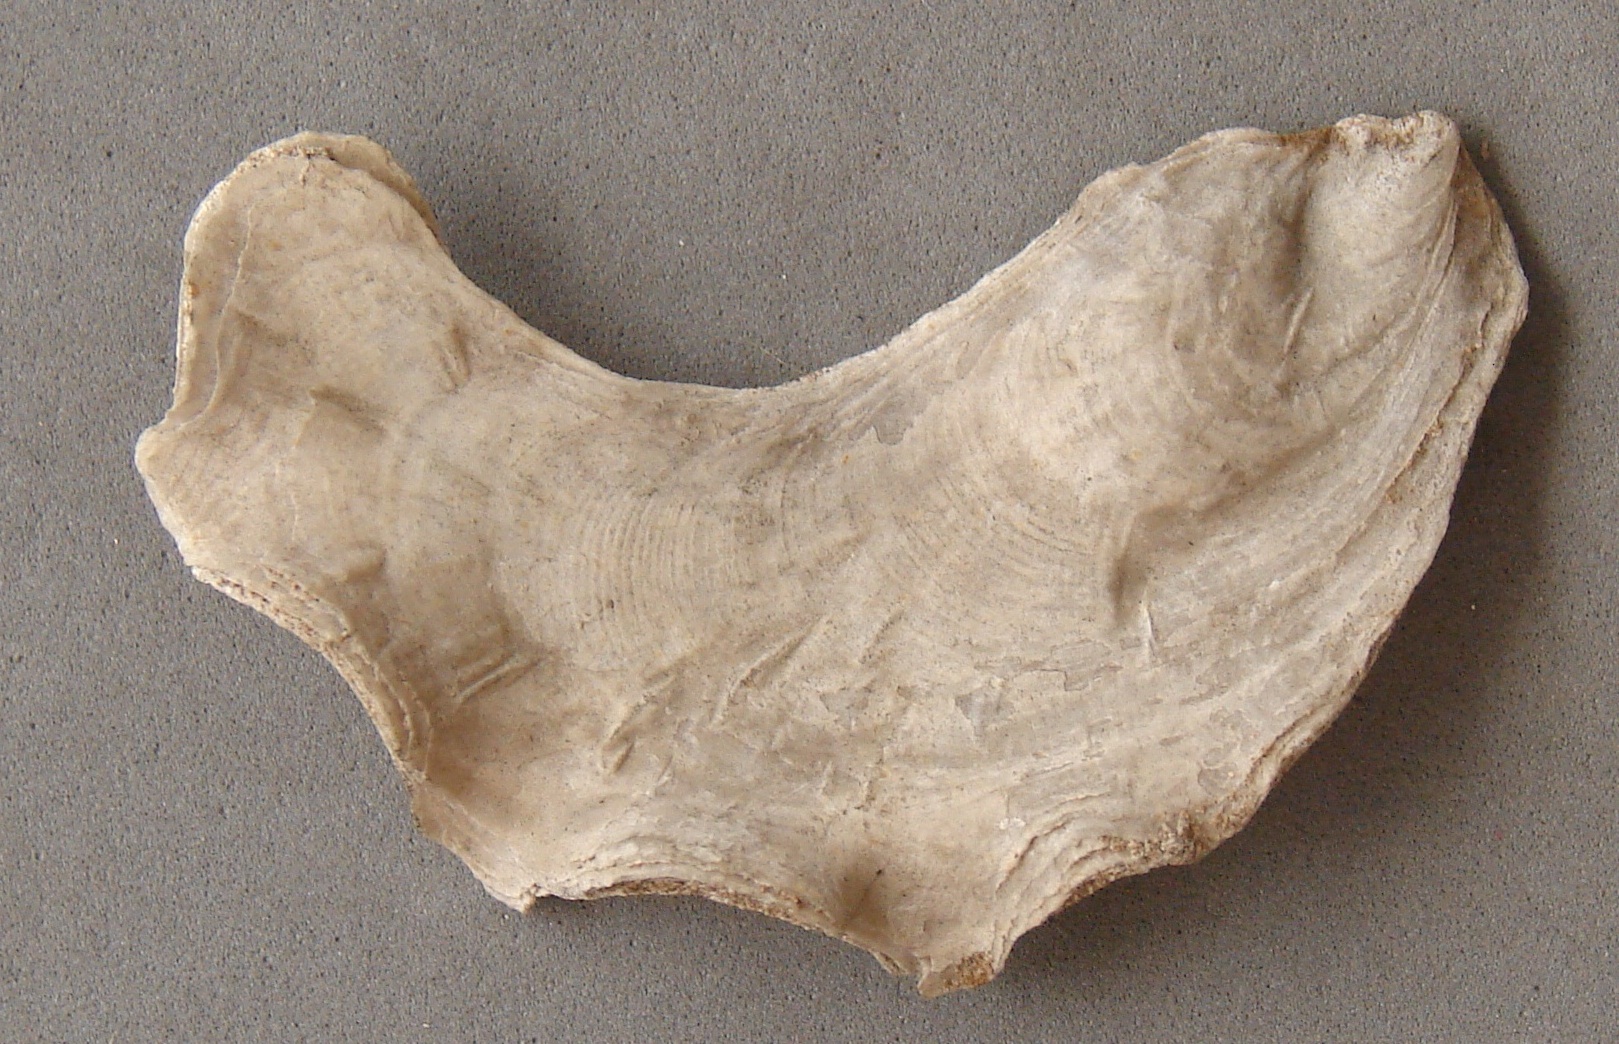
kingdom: Animalia
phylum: Mollusca
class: Bivalvia
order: Ostreida
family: Ostreidae
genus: Ambigostrea
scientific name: Ambigostrea Ostrea tripolitana
